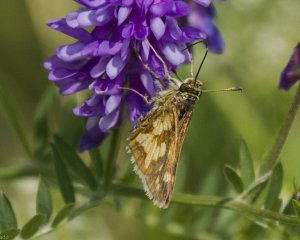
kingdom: Animalia
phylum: Arthropoda
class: Insecta
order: Lepidoptera
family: Hesperiidae
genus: Polites
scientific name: Polites coras
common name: Peck's Skipper
